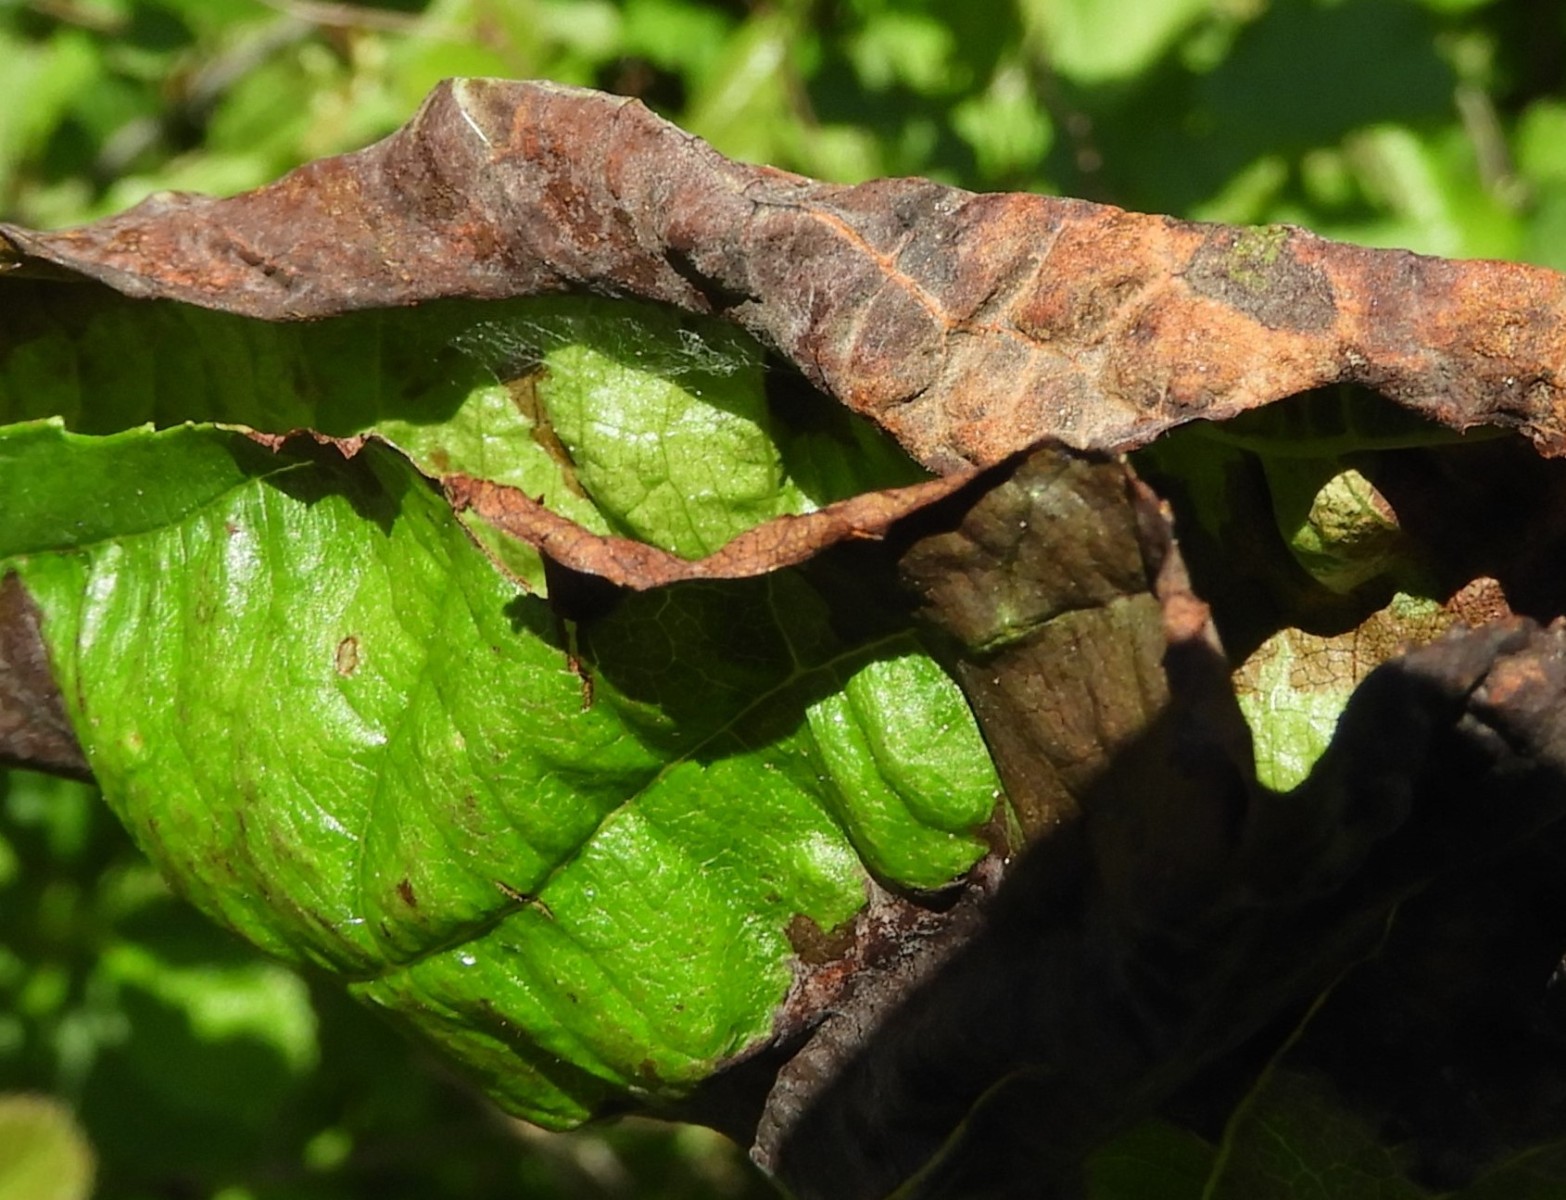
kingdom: Fungi
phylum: Ascomycota
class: Taphrinomycetes
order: Taphrinales
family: Taphrinaceae
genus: Taphrina
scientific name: Taphrina tosquinetii
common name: Alder wrinkle
